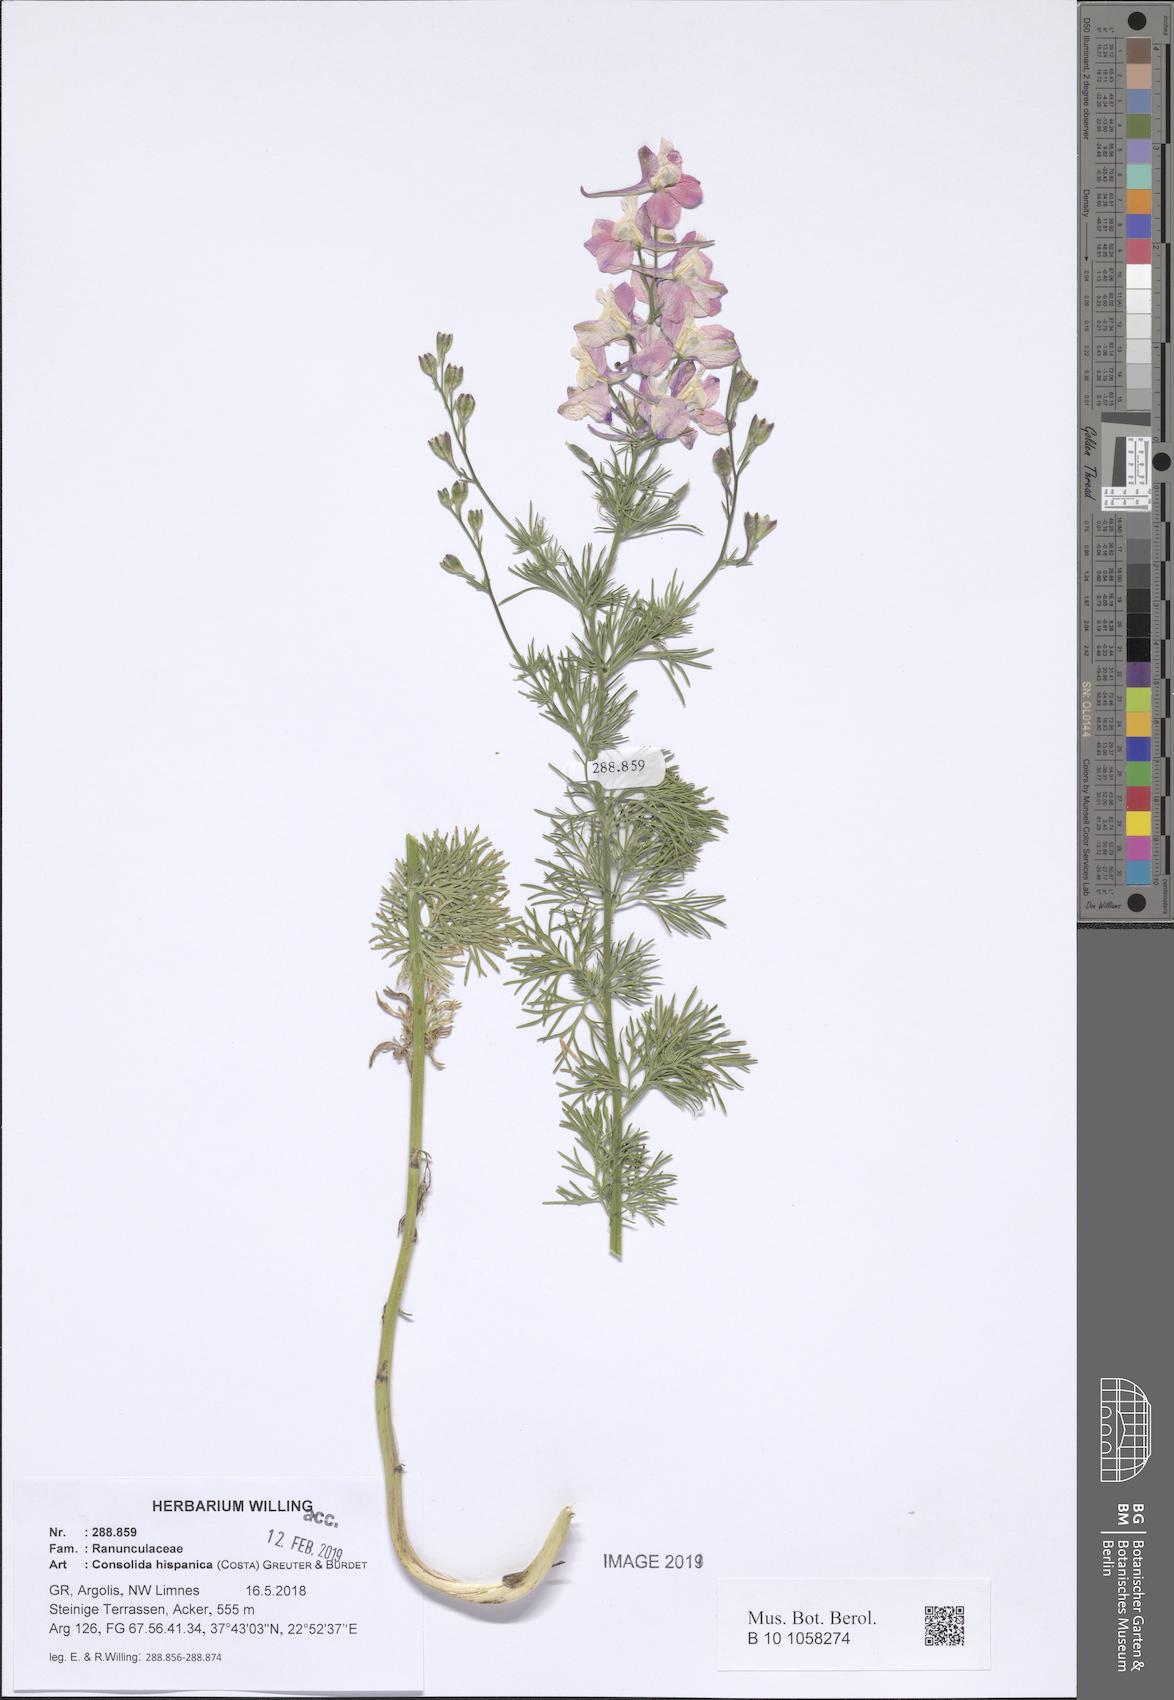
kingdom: Plantae
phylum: Tracheophyta
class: Magnoliopsida
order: Ranunculales
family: Ranunculaceae
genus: Delphinium
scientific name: Delphinium hispanicum
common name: Oriental knight's-spur
